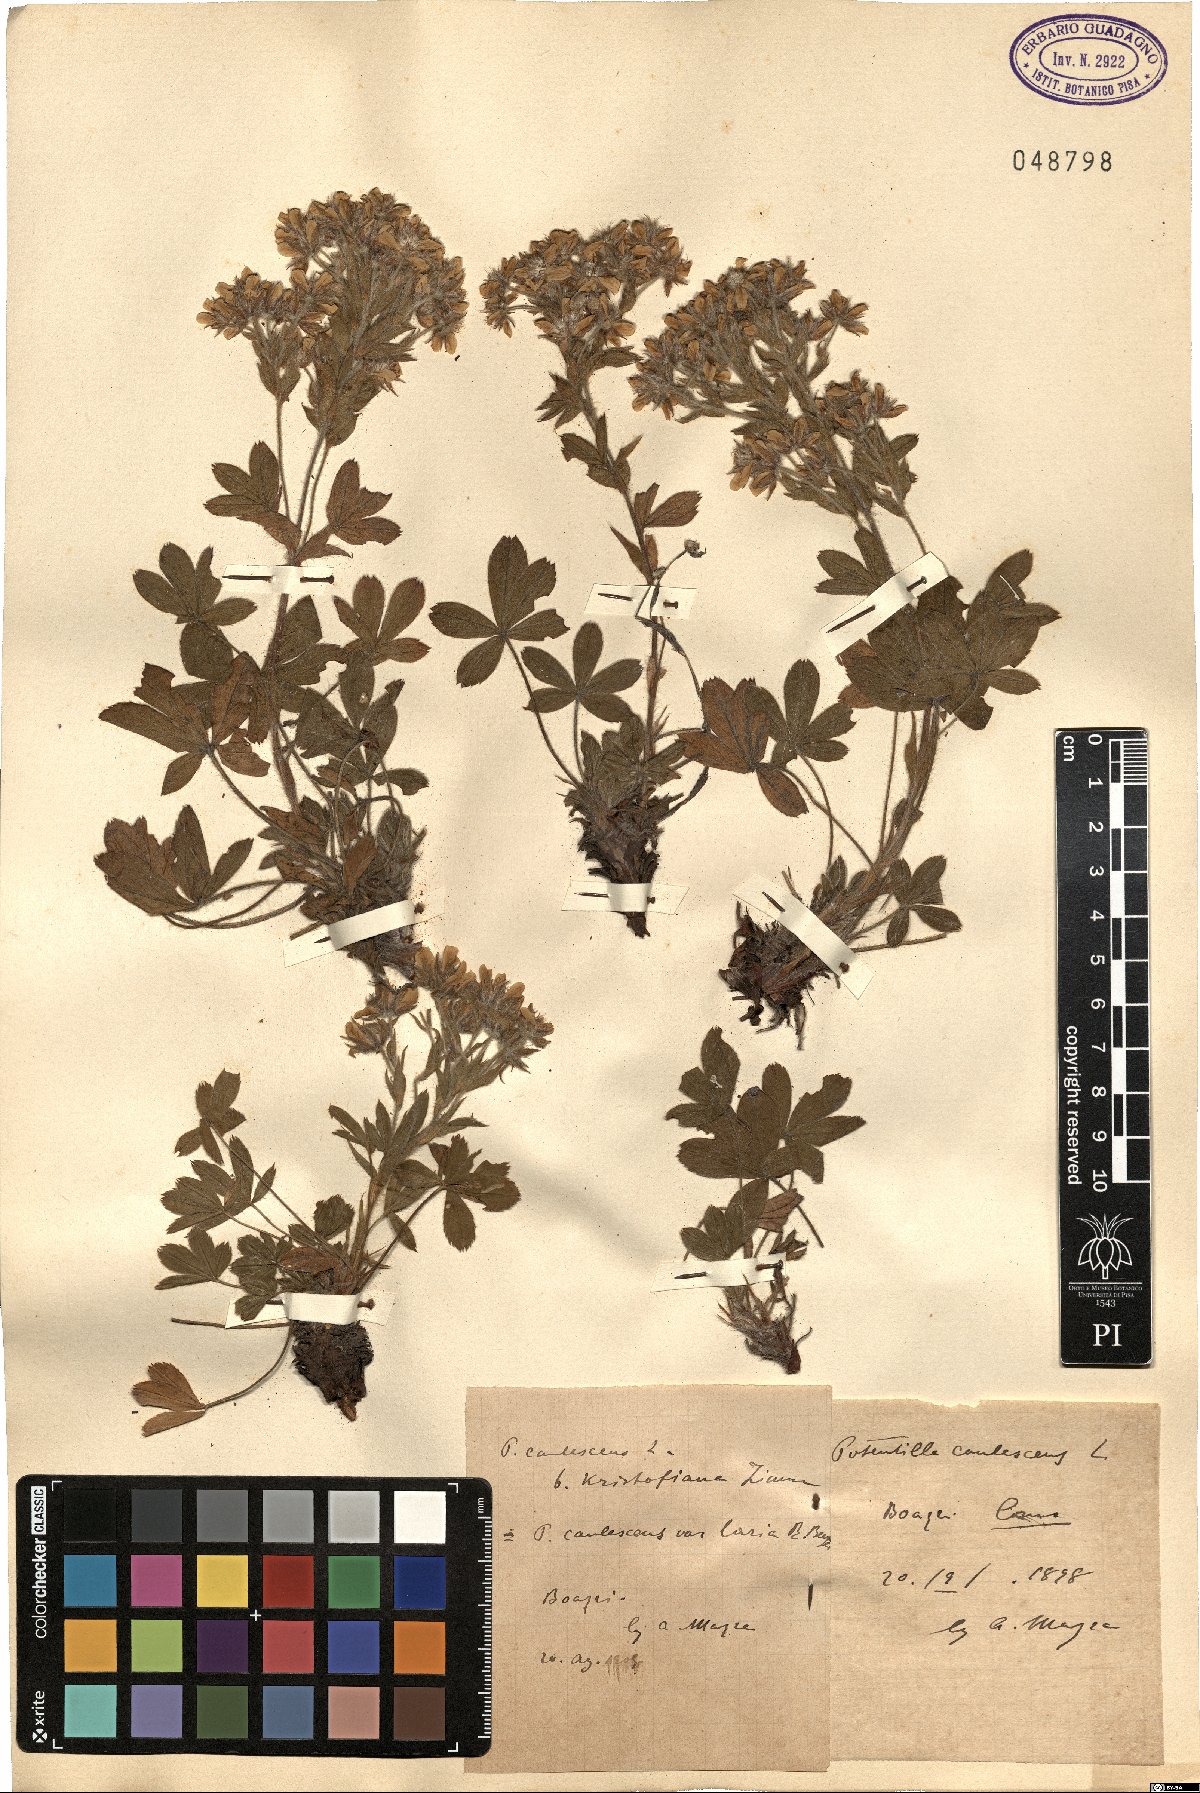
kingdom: Plantae
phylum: Tracheophyta
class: Magnoliopsida
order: Rosales
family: Rosaceae
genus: Potentilla
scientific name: Potentilla caulescens
